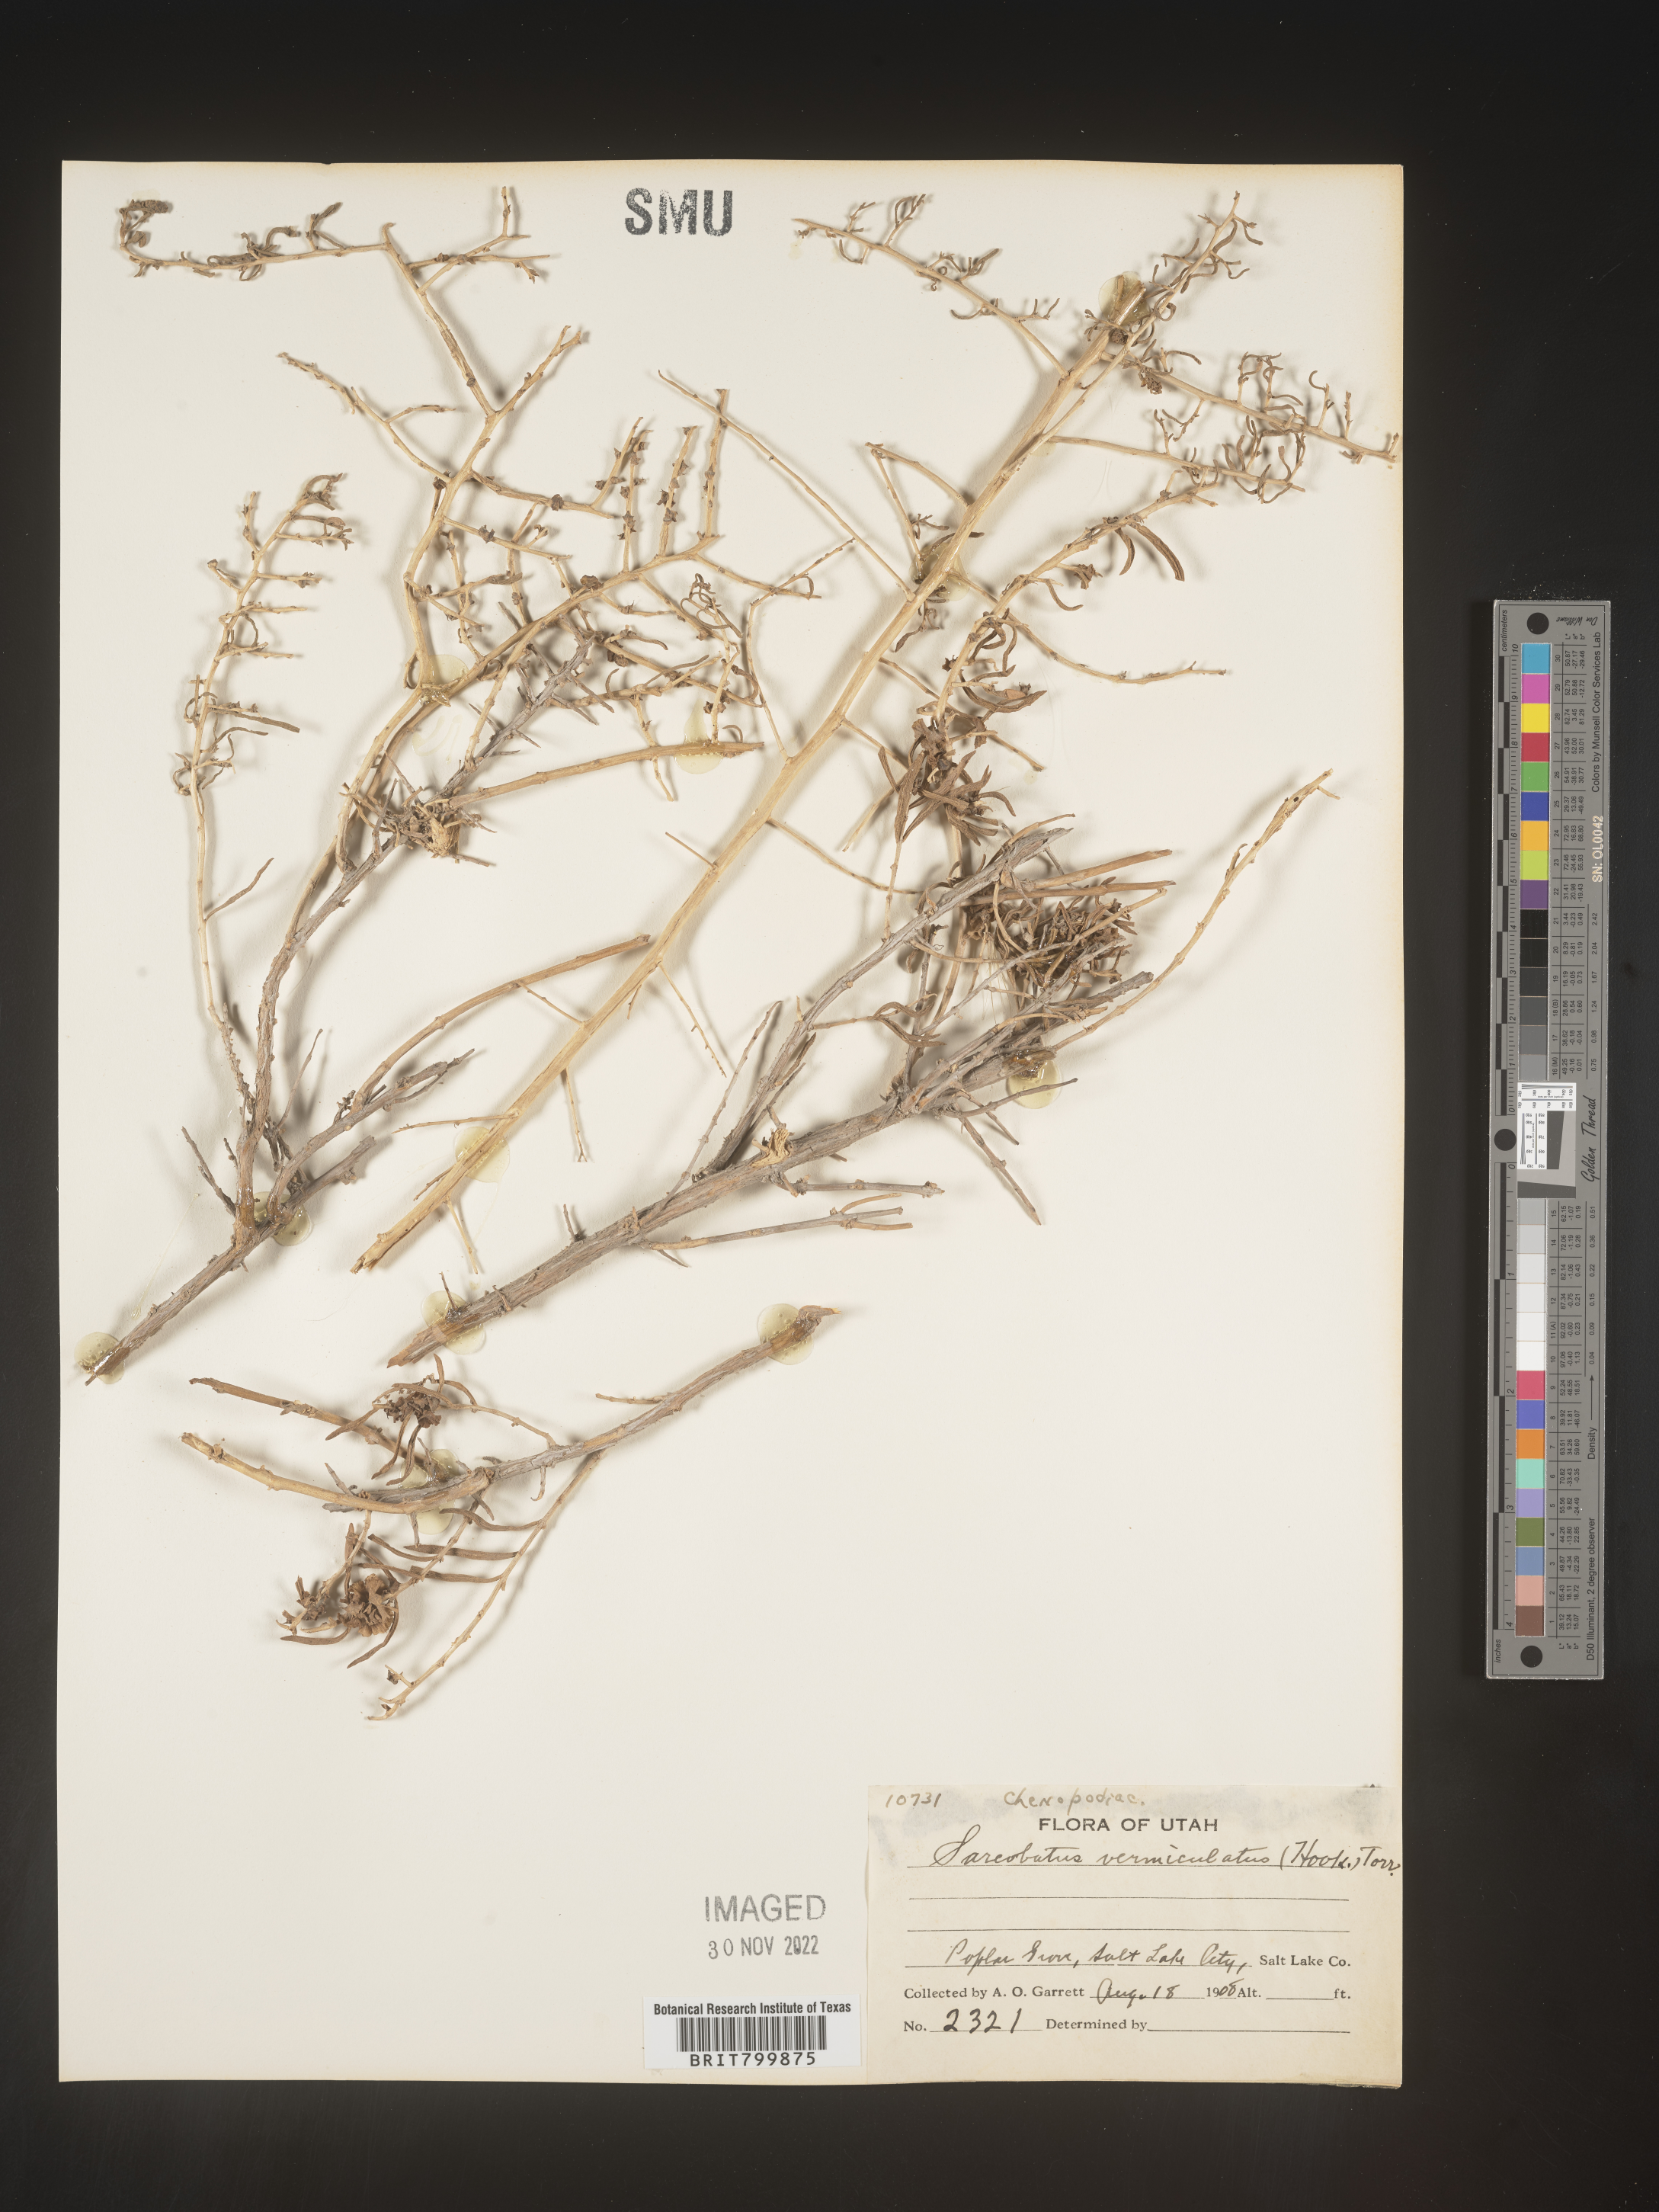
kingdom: Plantae
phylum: Tracheophyta
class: Magnoliopsida
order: Caryophyllales
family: Sarcobataceae
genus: Sarcobatus
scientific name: Sarcobatus vermiculatus
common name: Greasewood
